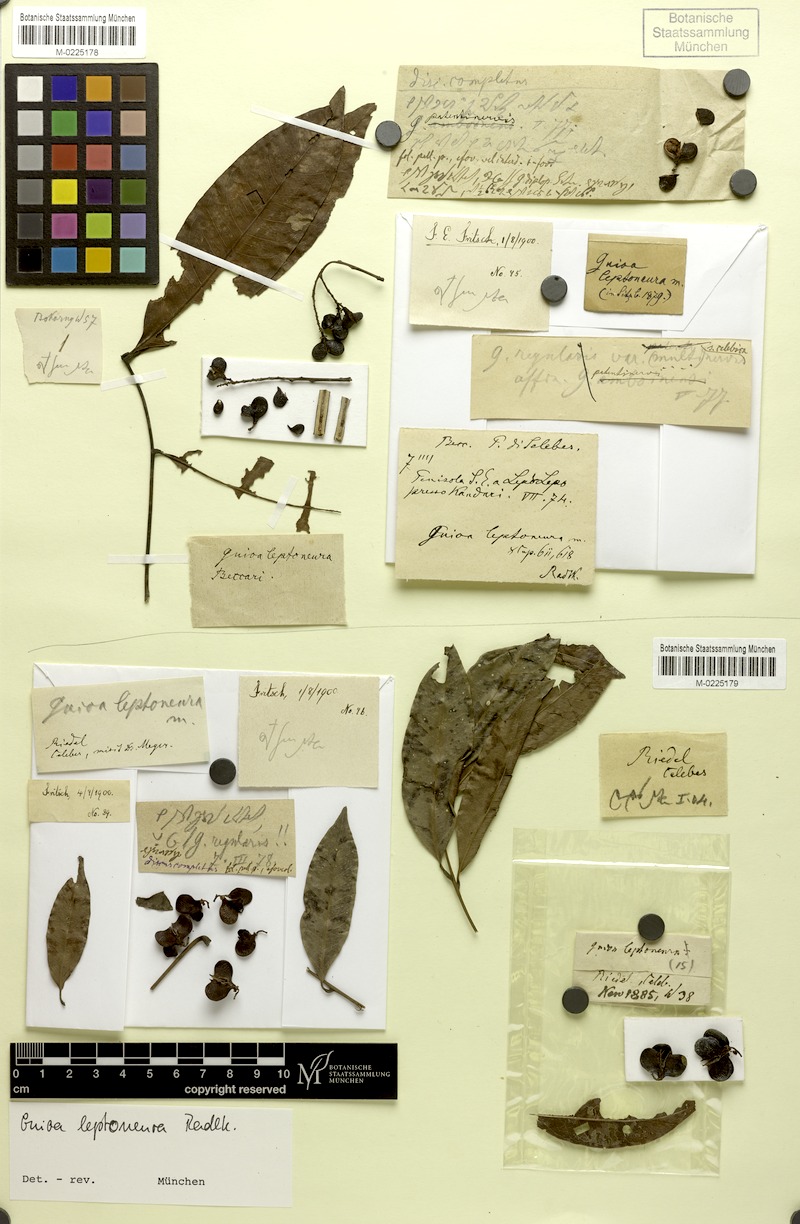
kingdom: Plantae
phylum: Tracheophyta
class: Magnoliopsida
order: Sapindales
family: Sapindaceae
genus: Guioa
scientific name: Guioa diplopetala
